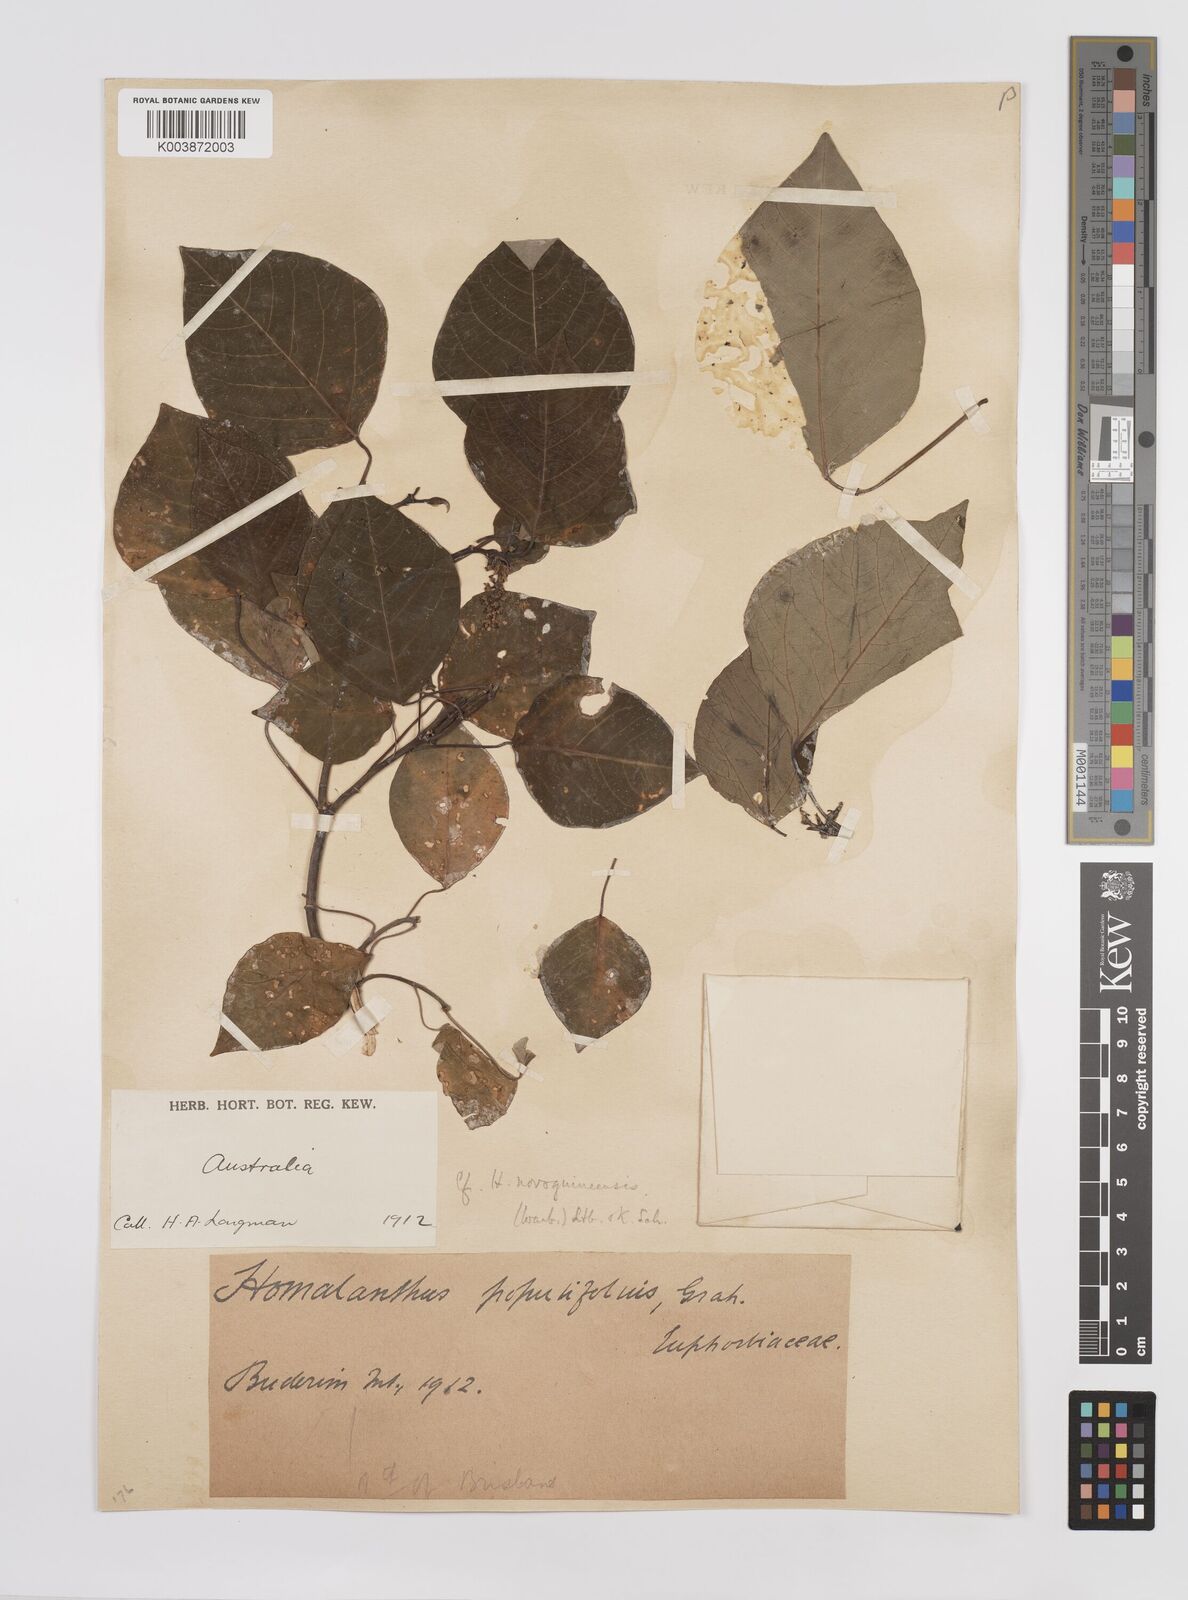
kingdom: Plantae
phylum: Tracheophyta
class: Magnoliopsida
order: Malpighiales
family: Euphorbiaceae
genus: Homalanthus
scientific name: Homalanthus populifolius
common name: Queensland poplar
